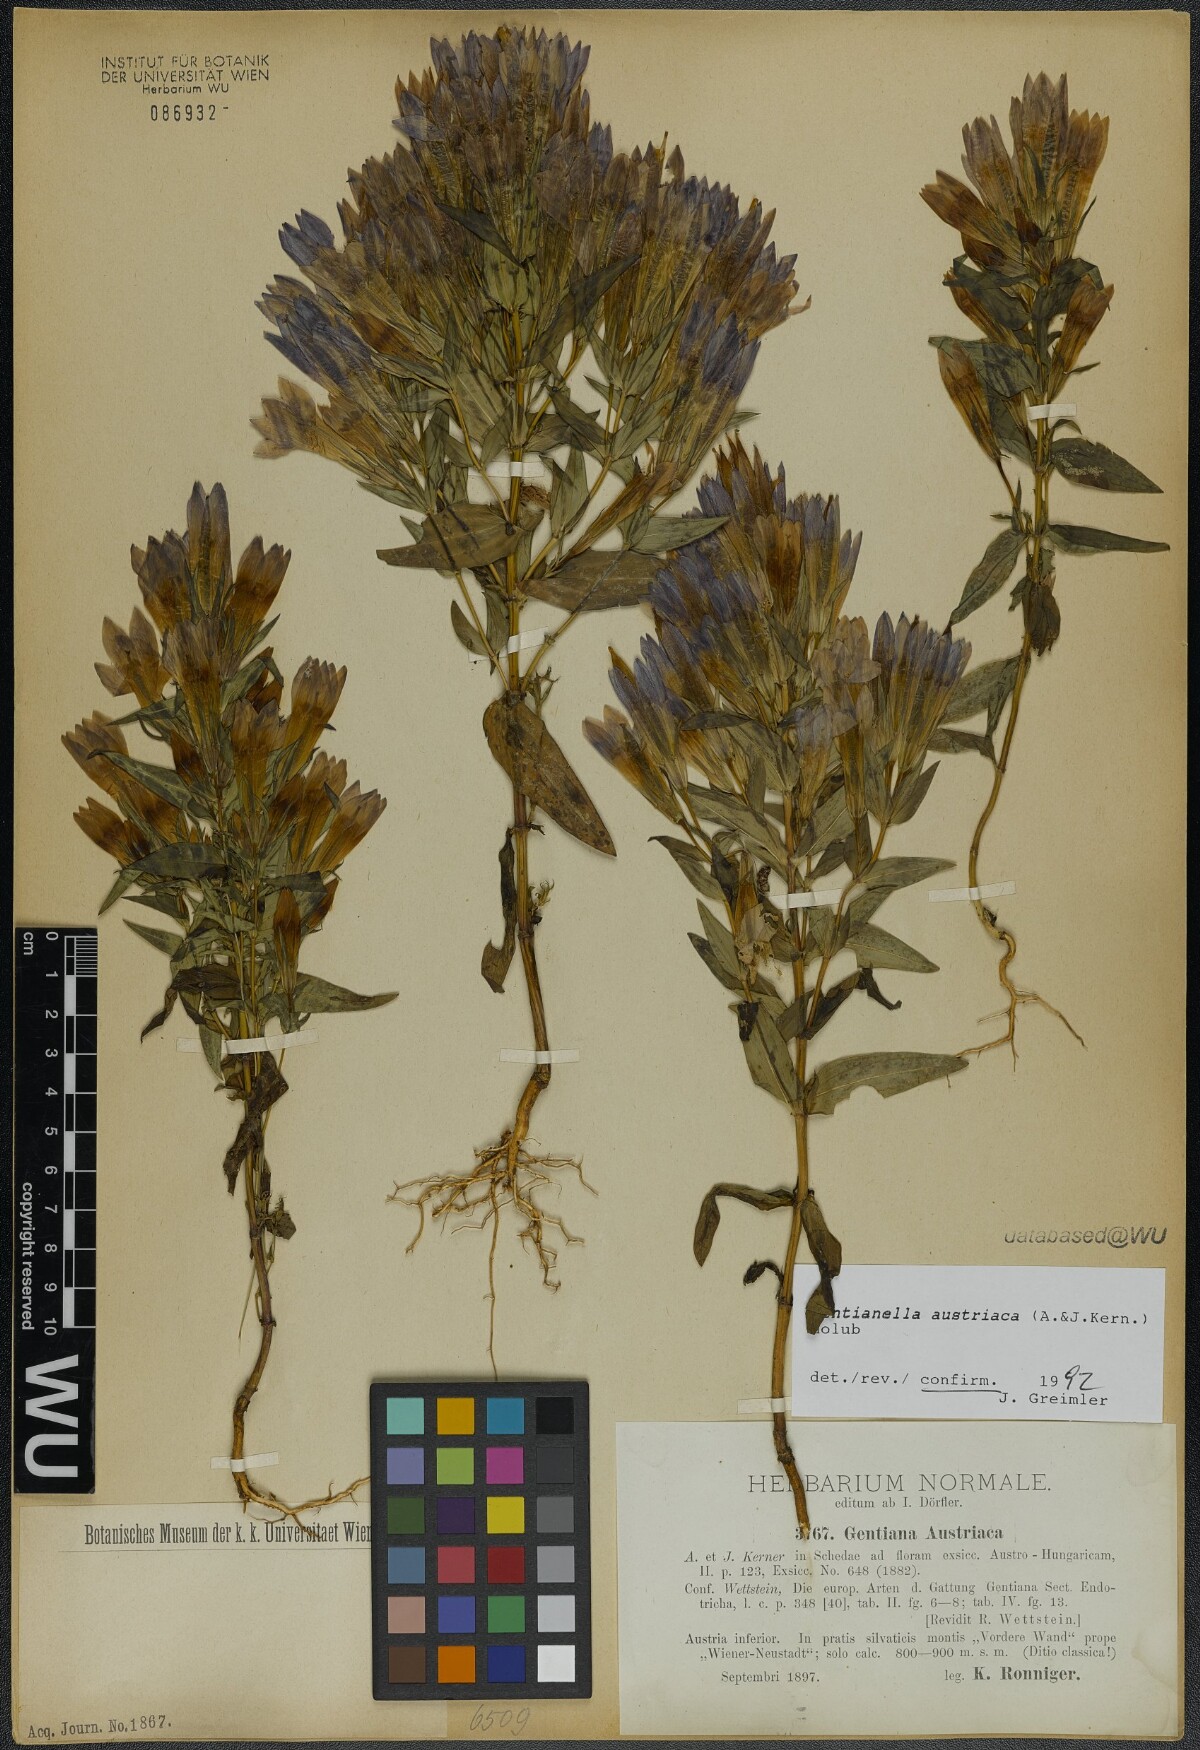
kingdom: Plantae
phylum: Tracheophyta
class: Magnoliopsida
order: Gentianales
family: Gentianaceae
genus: Gentianella
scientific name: Gentianella austriaca
